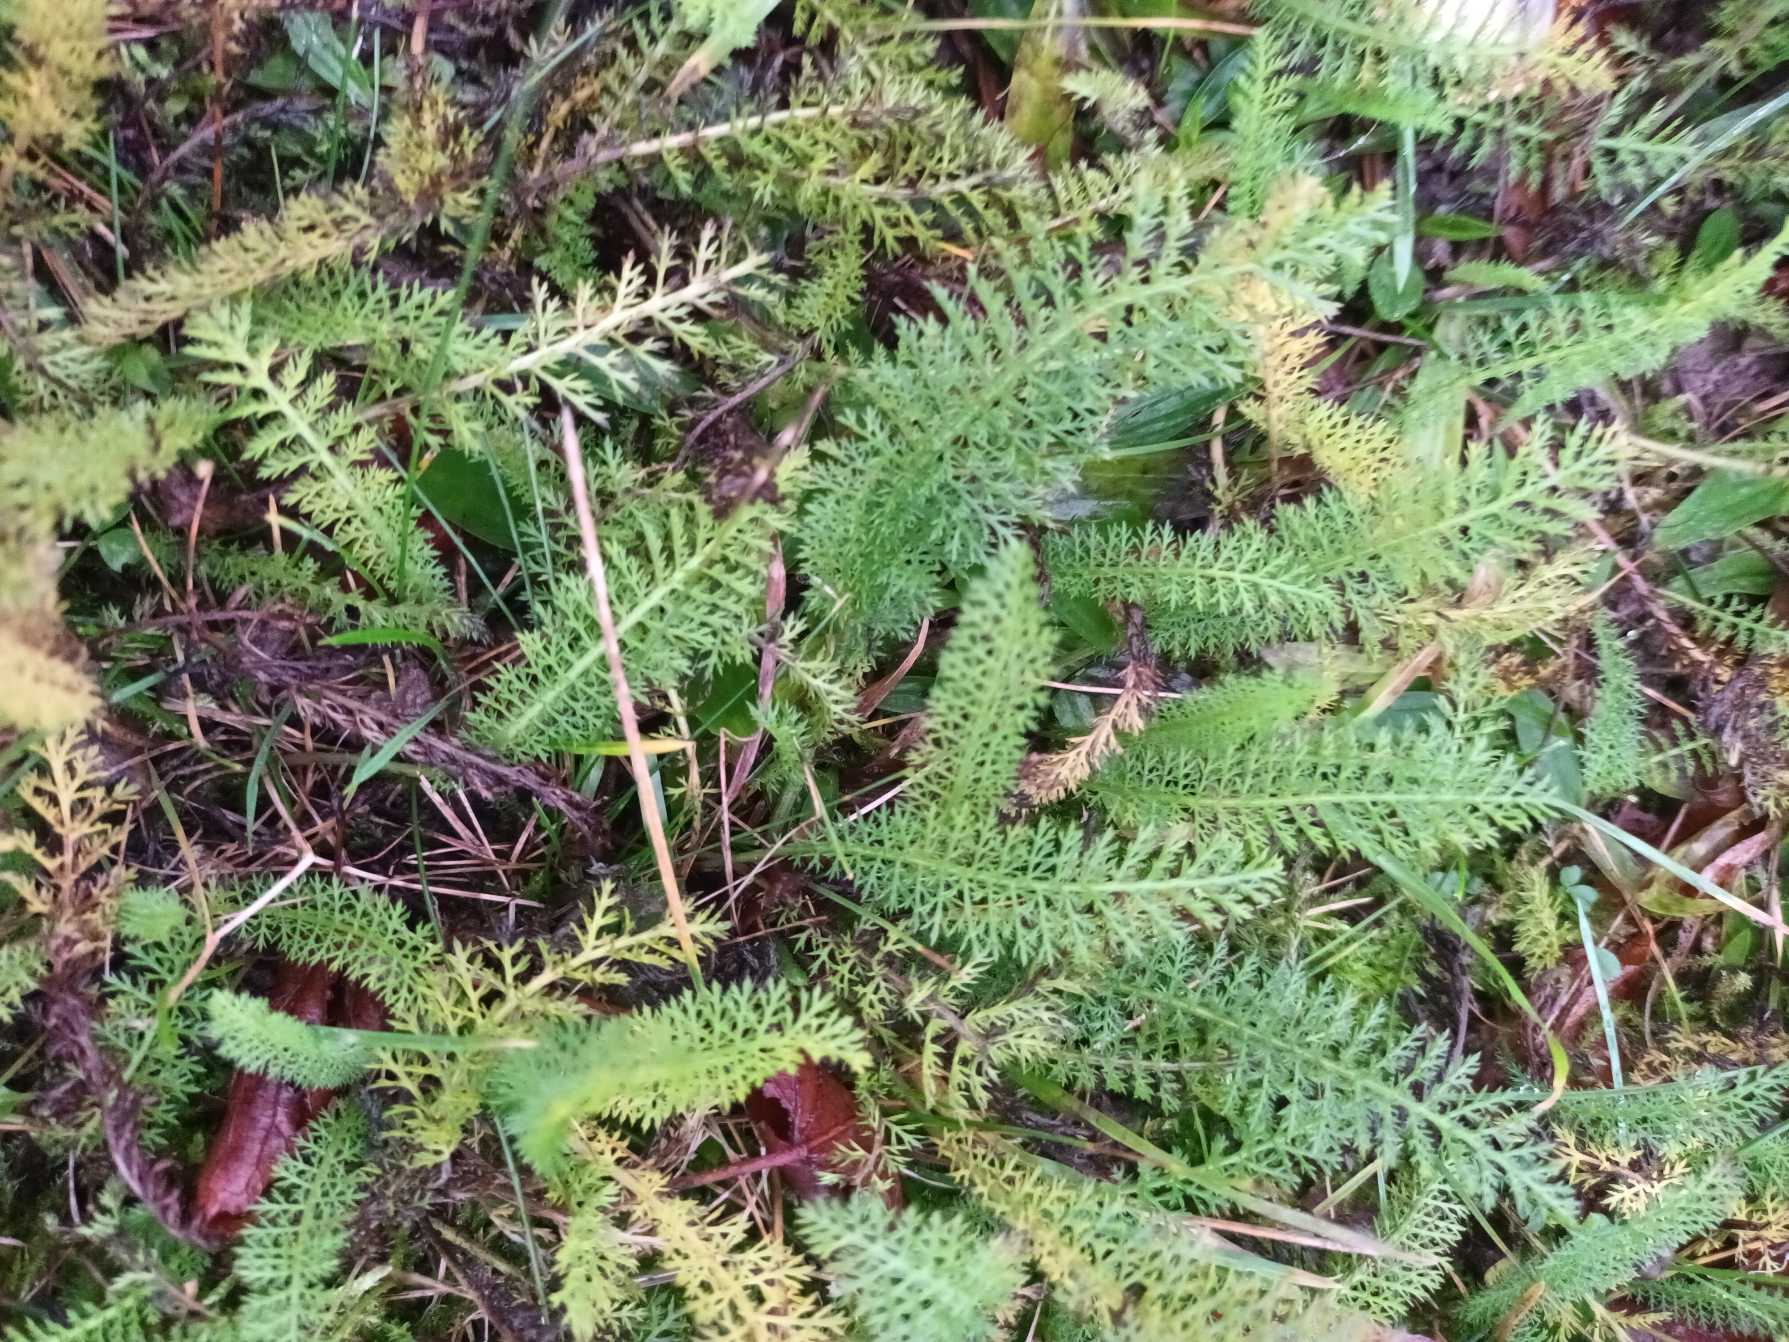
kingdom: Plantae
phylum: Tracheophyta
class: Magnoliopsida
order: Asterales
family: Asteraceae
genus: Achillea
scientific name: Achillea millefolium
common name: Almindelig røllike
